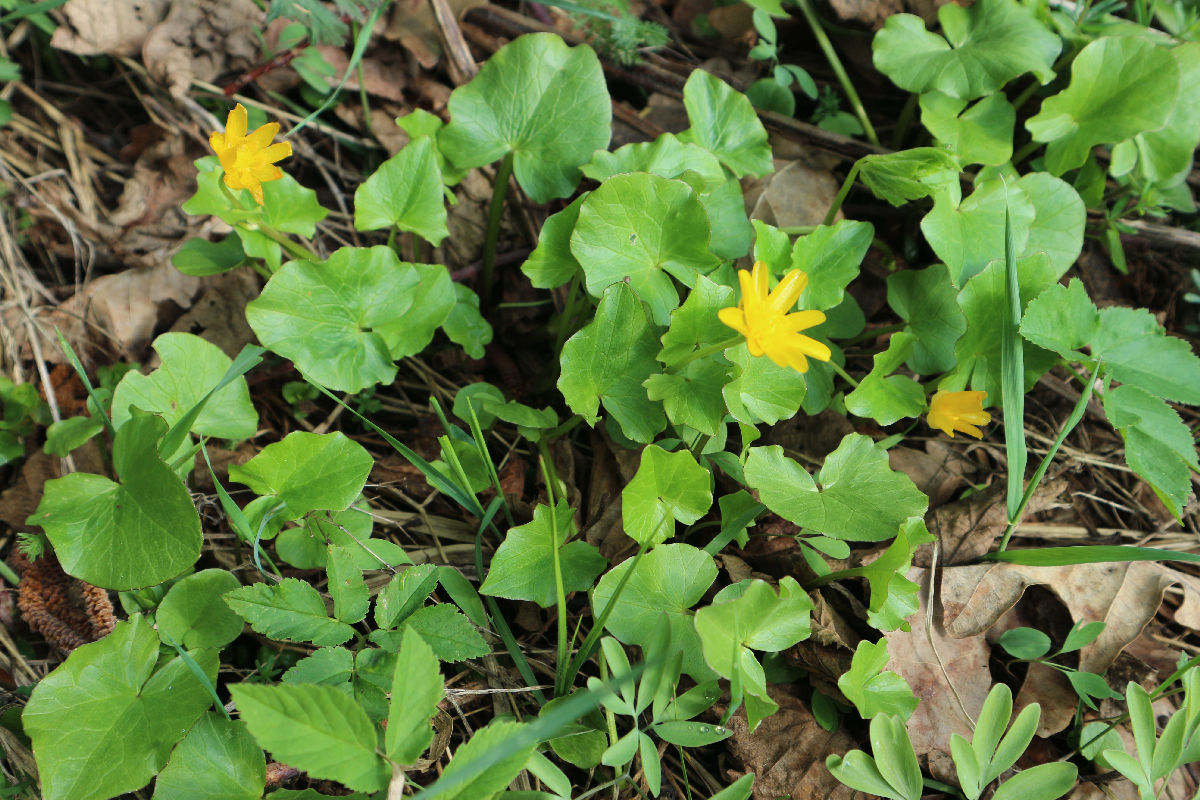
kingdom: Plantae
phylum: Tracheophyta
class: Magnoliopsida
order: Ranunculales
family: Ranunculaceae
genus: Ficaria
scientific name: Ficaria verna
